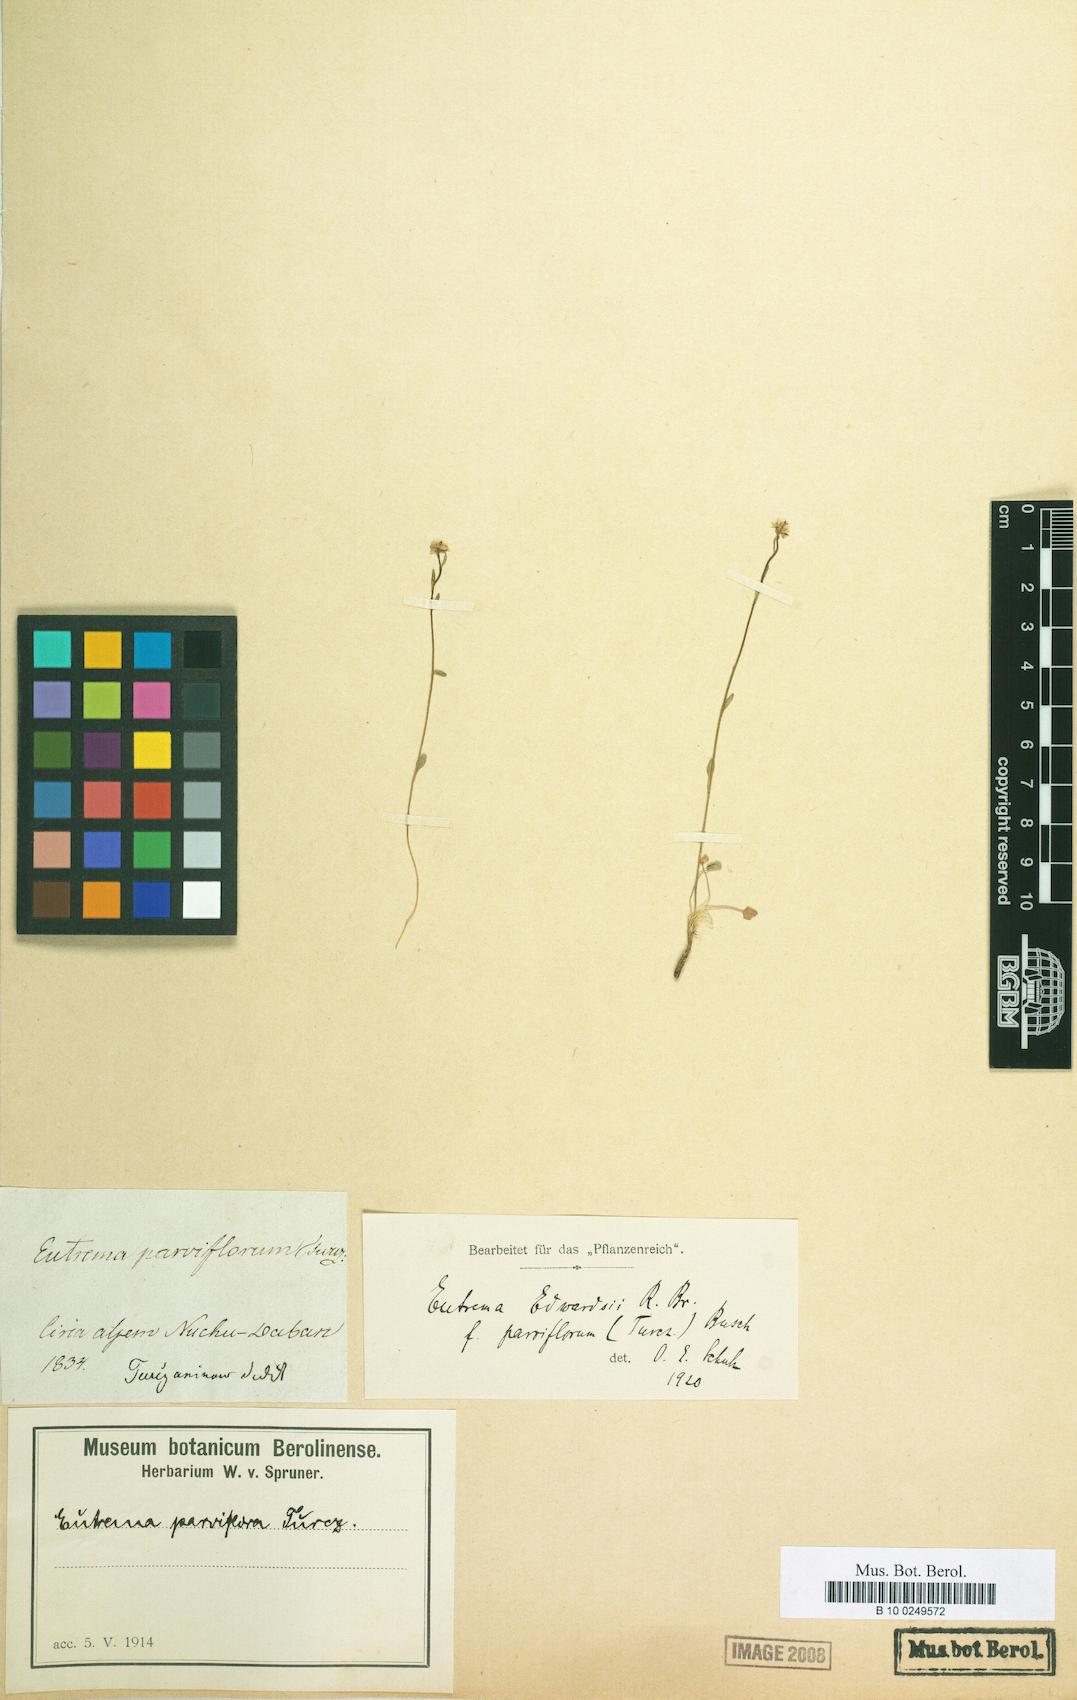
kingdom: Plantae
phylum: Tracheophyta
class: Magnoliopsida
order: Brassicales
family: Brassicaceae
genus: Eutrema
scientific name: Eutrema edwardsae
